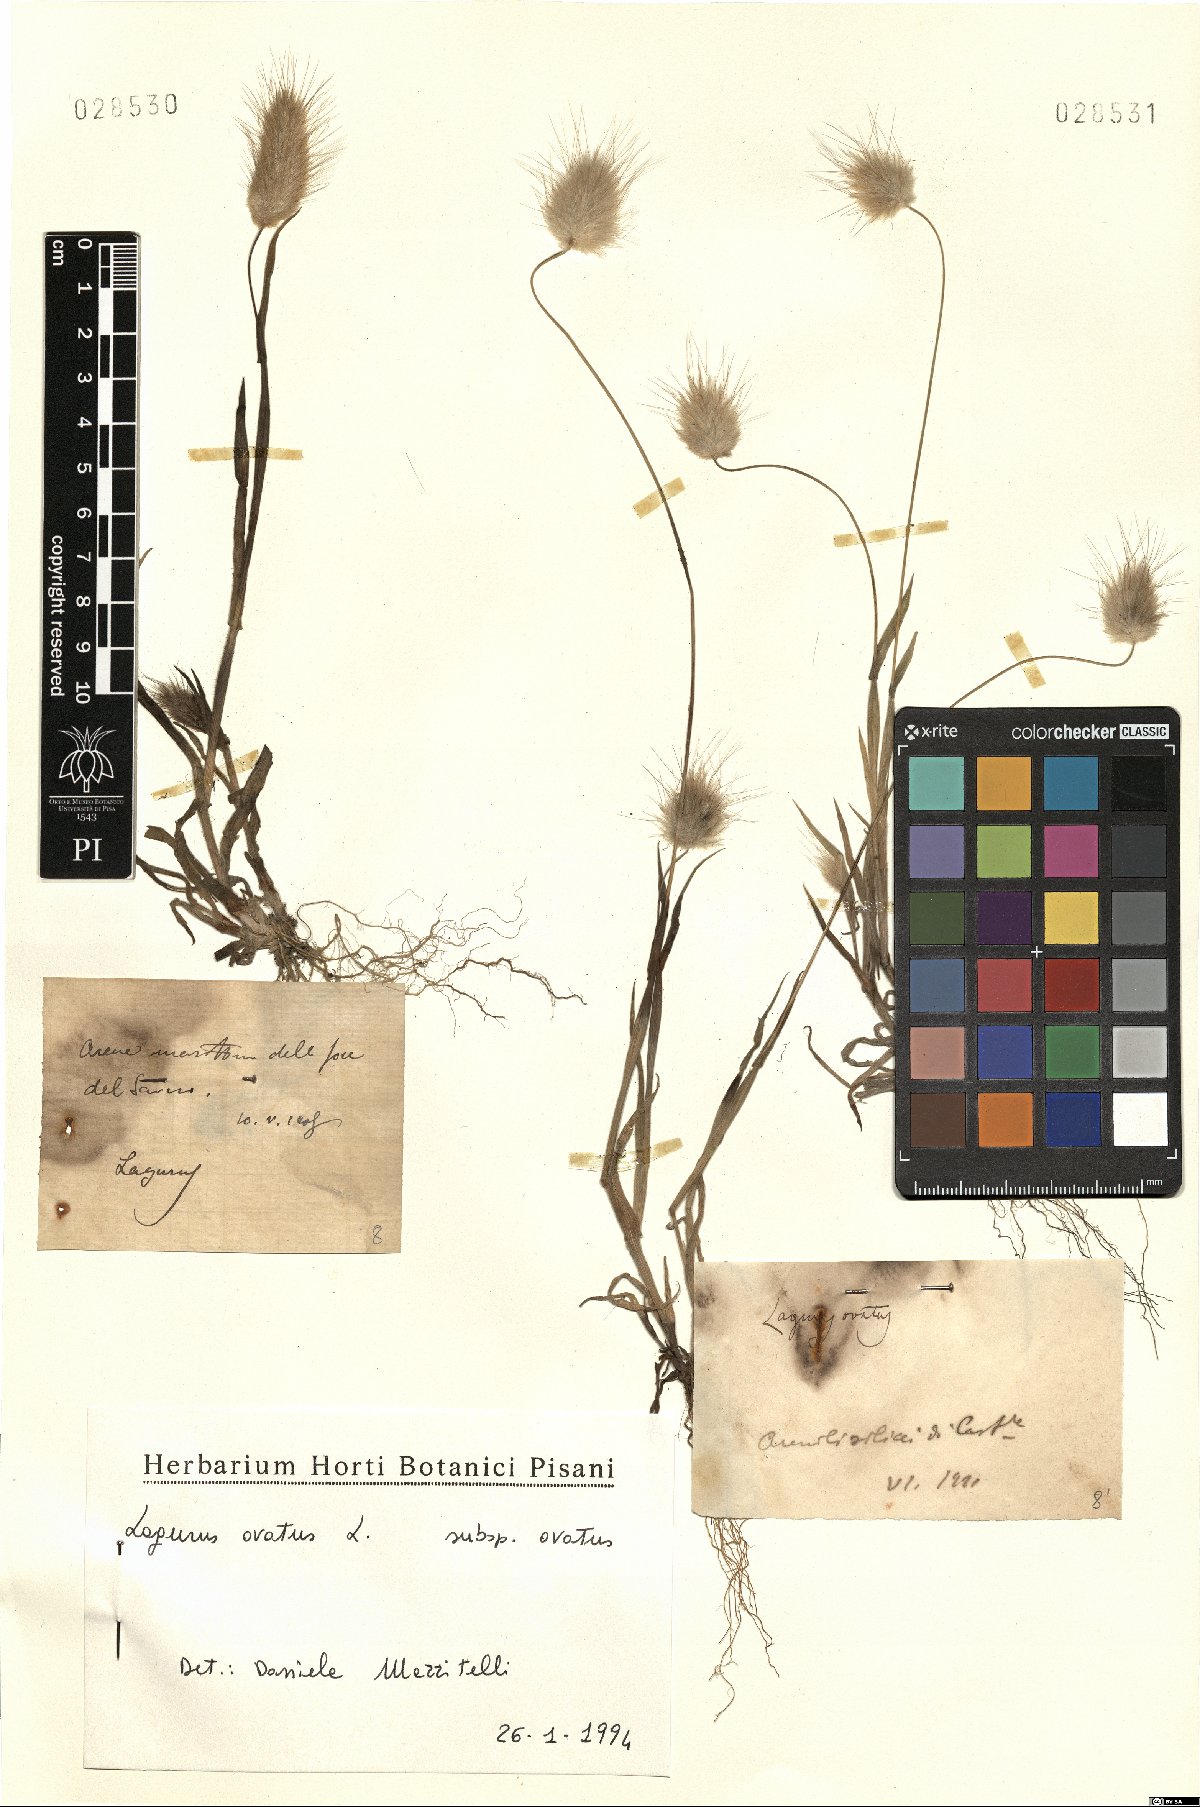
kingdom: Plantae
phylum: Tracheophyta
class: Liliopsida
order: Poales
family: Poaceae
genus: Lagurus
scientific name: Lagurus ovatus
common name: Hare's-tail
